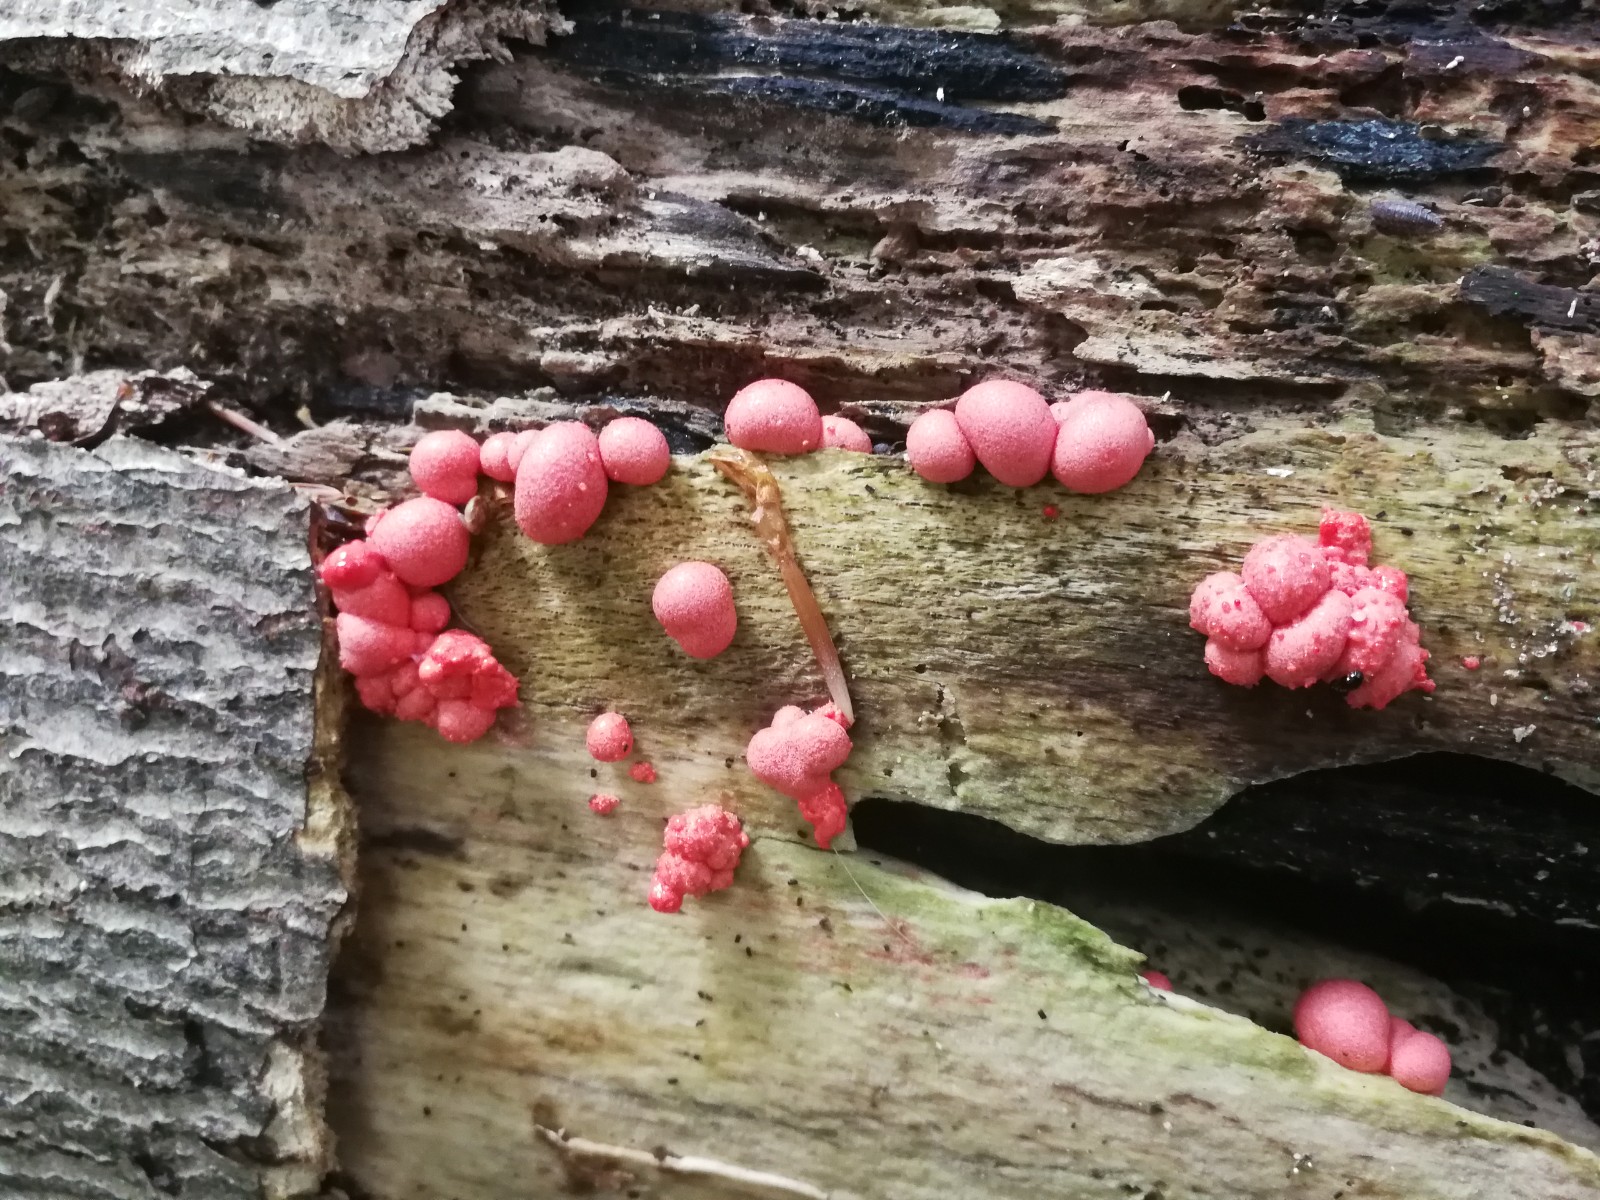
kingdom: Protozoa
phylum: Mycetozoa
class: Myxomycetes
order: Cribrariales
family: Tubiferaceae
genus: Lycogala
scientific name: Lycogala epidendrum
